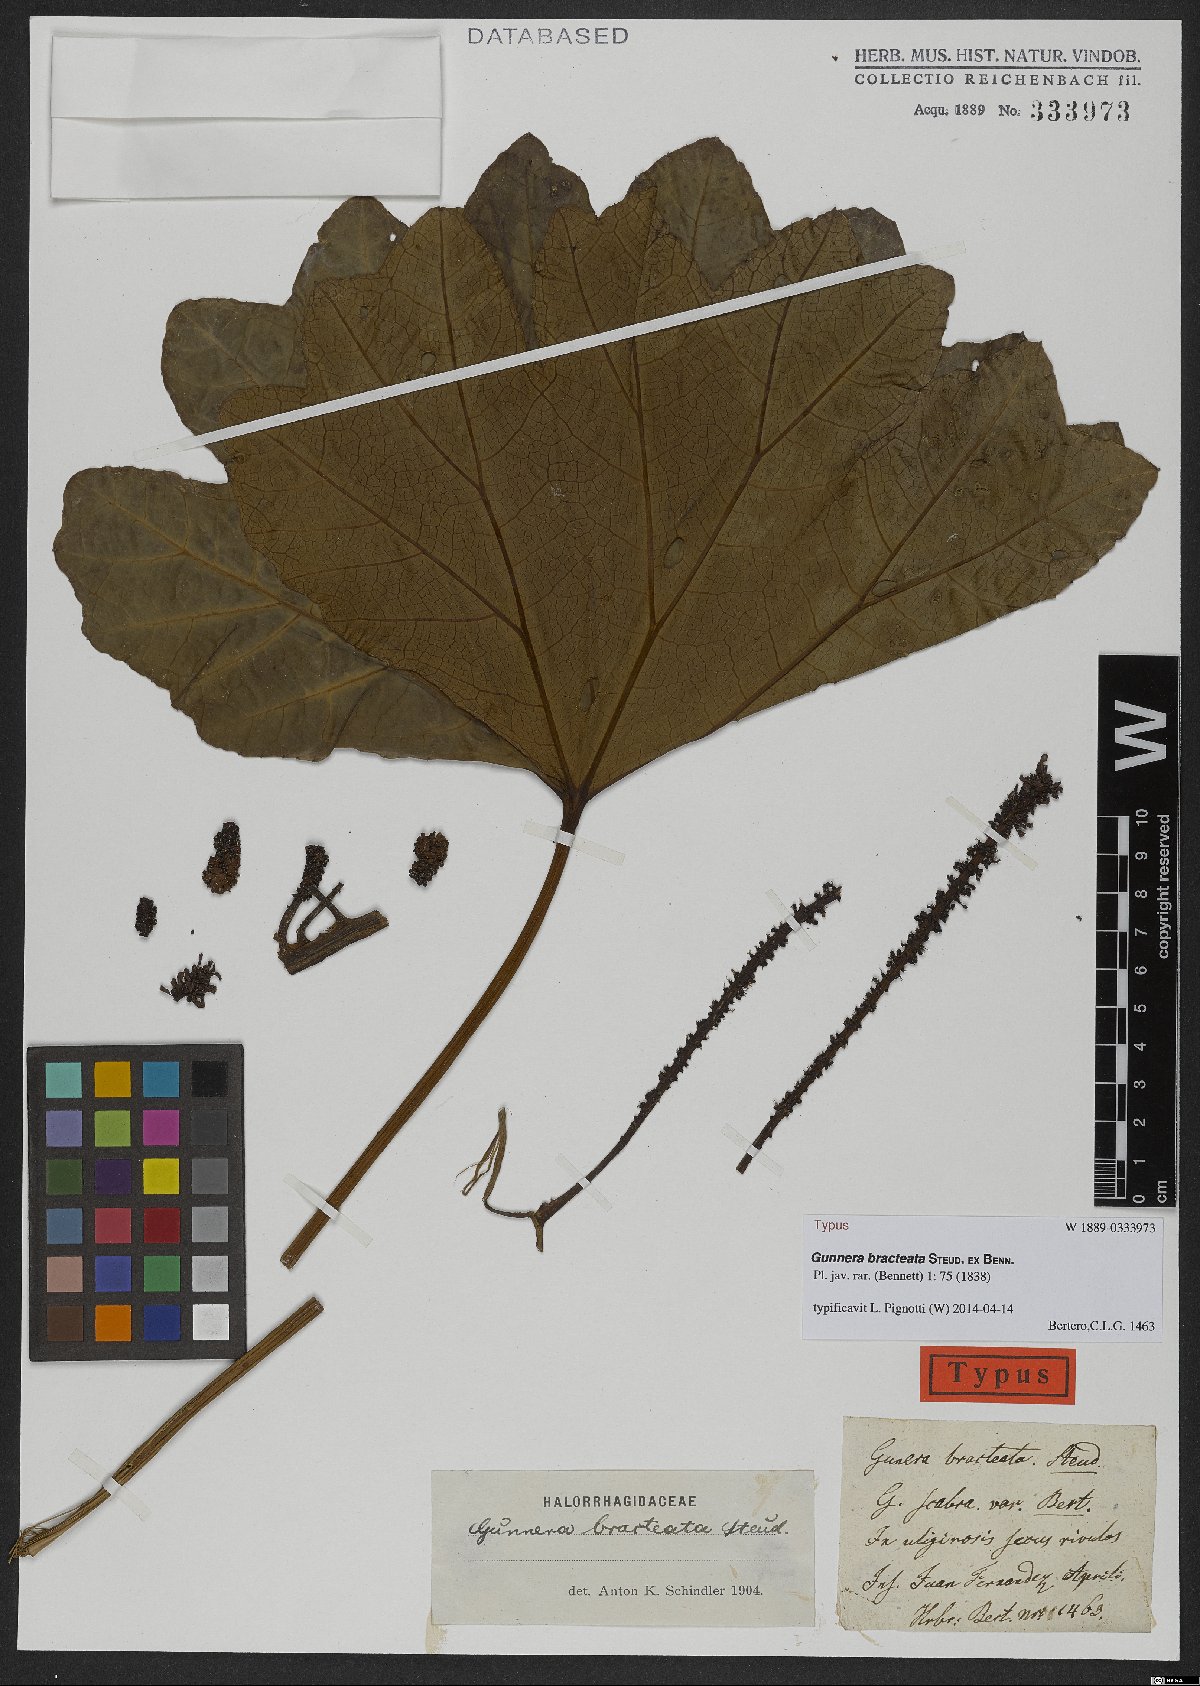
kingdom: Plantae
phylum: Tracheophyta
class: Magnoliopsida
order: Gunnerales
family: Gunneraceae
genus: Gunnera
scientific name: Gunnera bracteata
